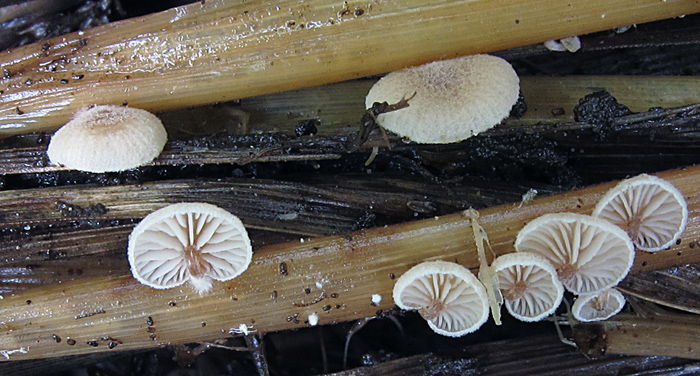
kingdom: Fungi
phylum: Basidiomycota
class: Agaricomycetes
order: Agaricales
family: Strophariaceae
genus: Deconica
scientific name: Deconica phillipsii
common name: almindelig stråhat
